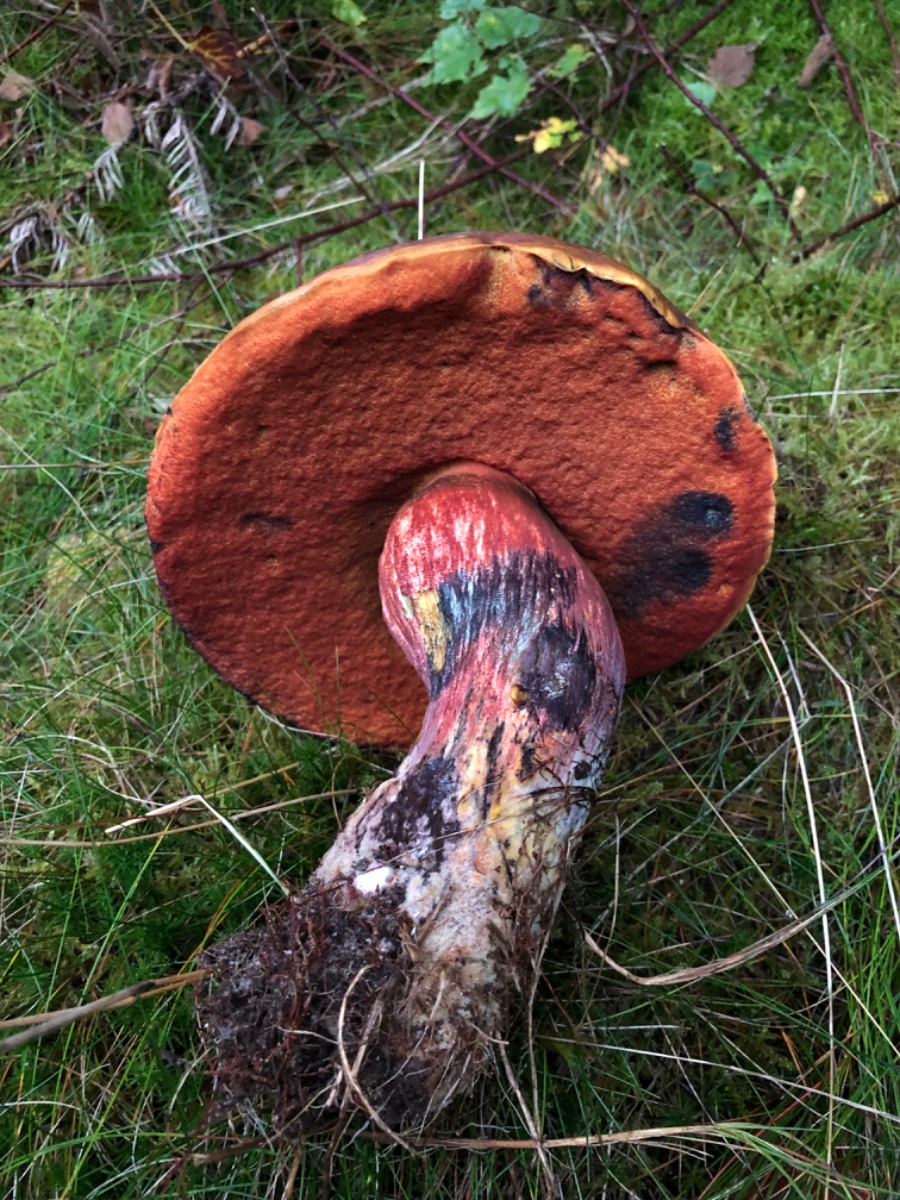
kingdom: Fungi
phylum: Basidiomycota
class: Agaricomycetes
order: Boletales
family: Boletaceae
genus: Neoboletus
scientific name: Neoboletus erythropus
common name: punktstokket indigorørhat
